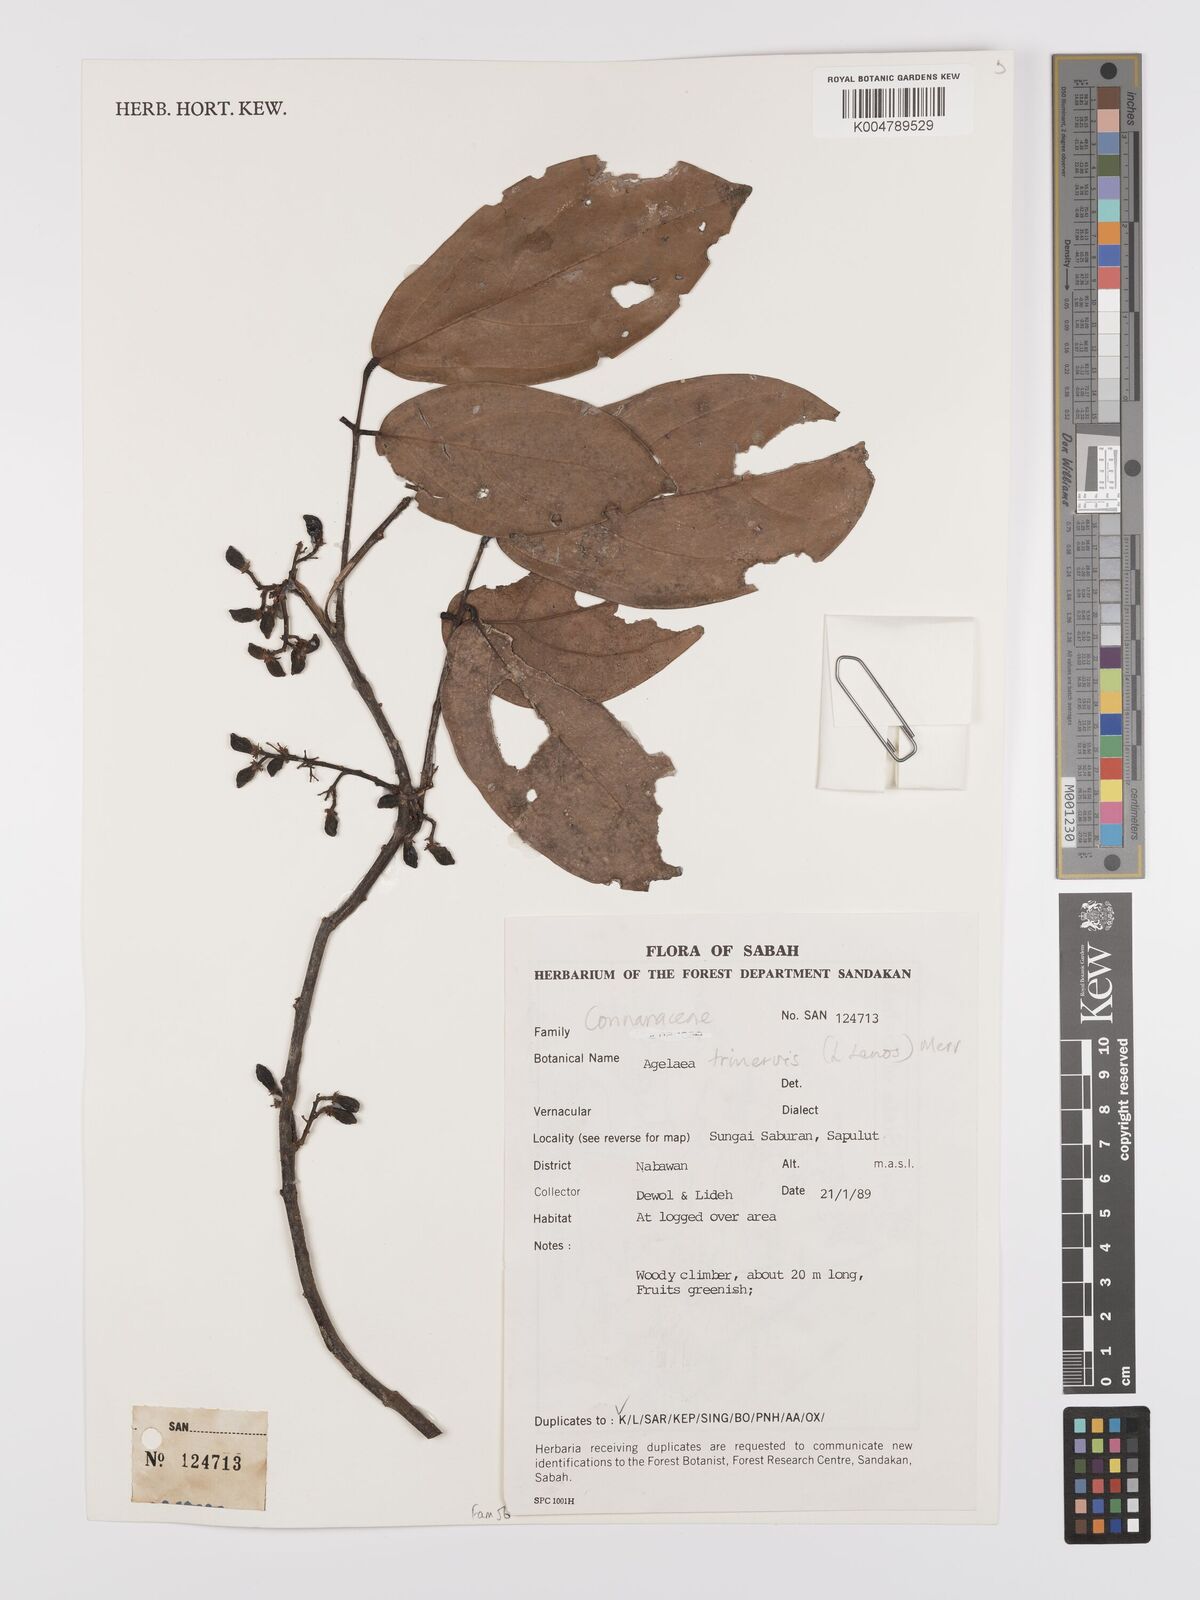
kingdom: Plantae
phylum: Tracheophyta
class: Magnoliopsida
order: Oxalidales
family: Connaraceae
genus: Agelaea
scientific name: Agelaea trinervis
